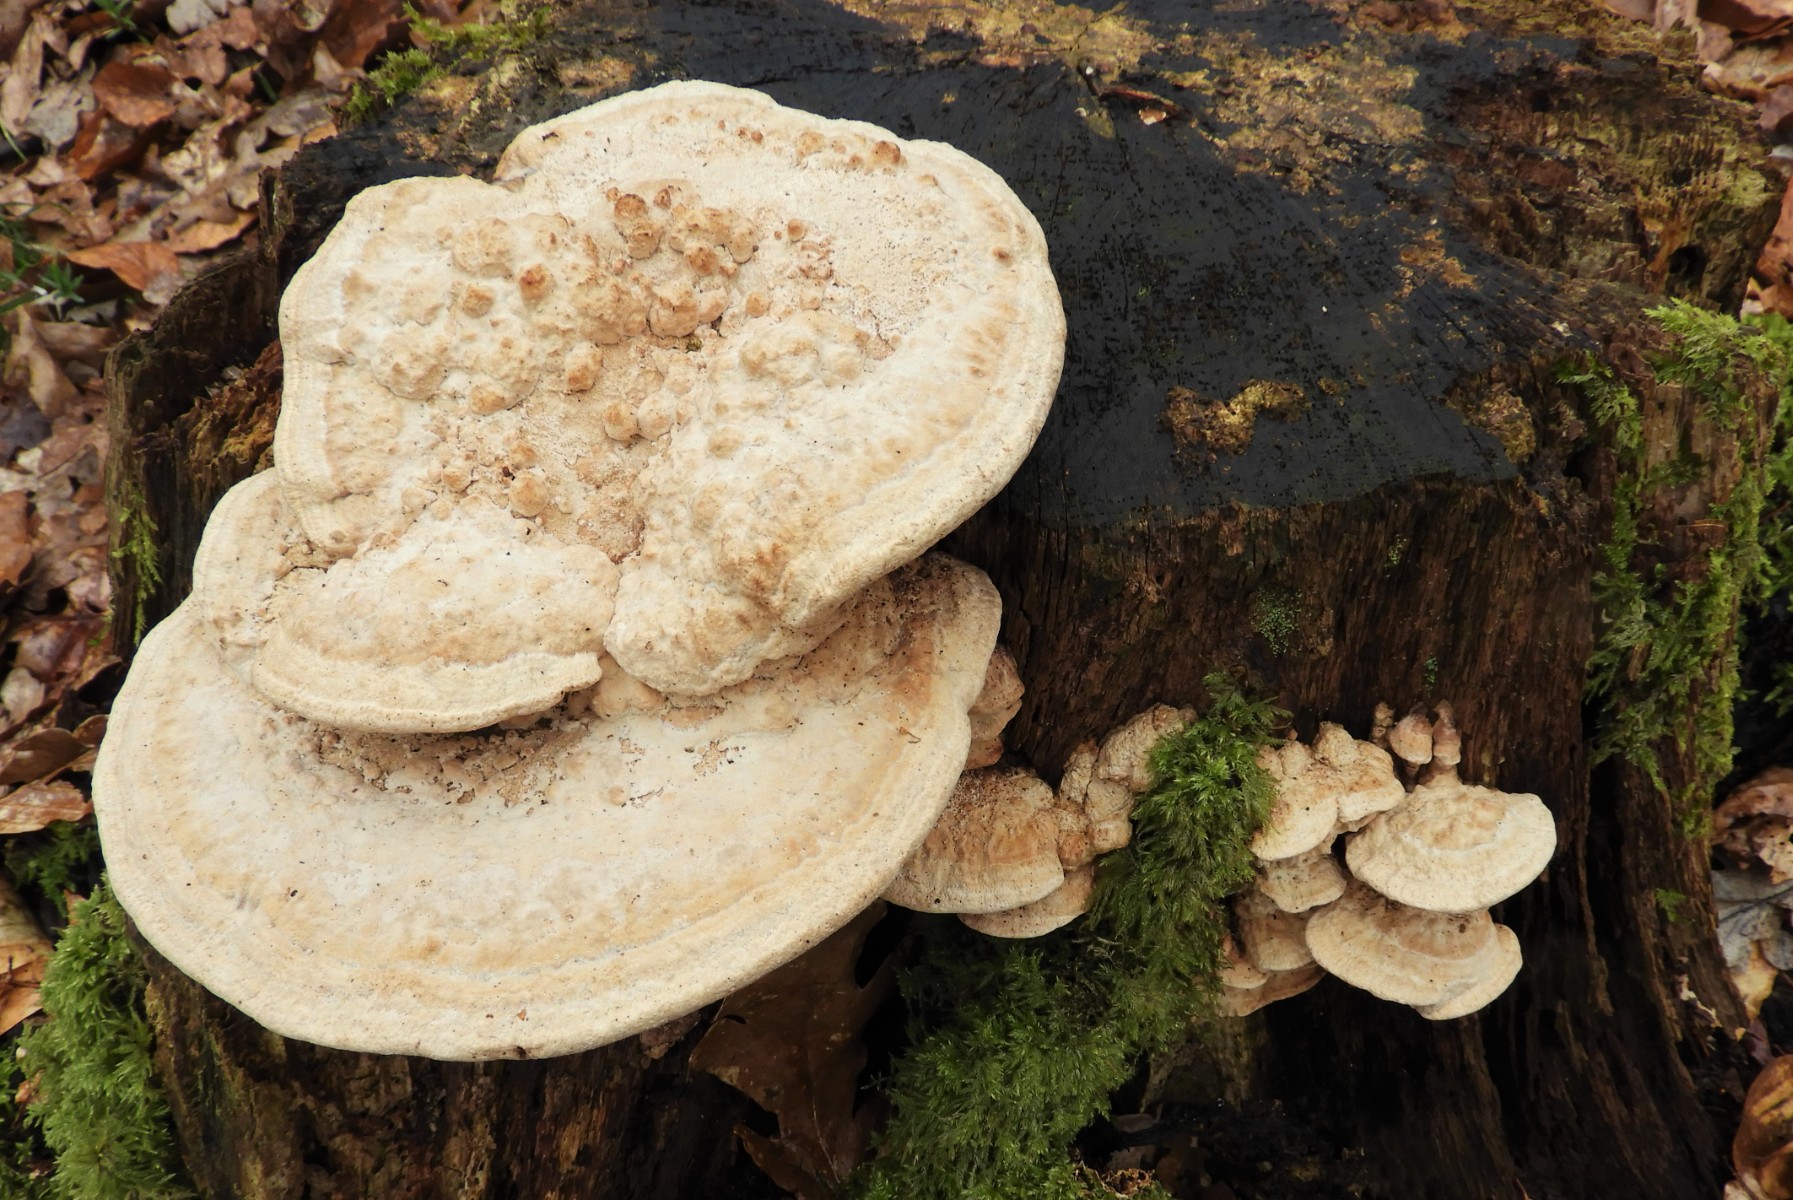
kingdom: Fungi
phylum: Basidiomycota
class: Agaricomycetes
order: Polyporales
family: Fomitopsidaceae
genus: Daedalea
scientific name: Daedalea quercina
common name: ege-labyrintsvamp
